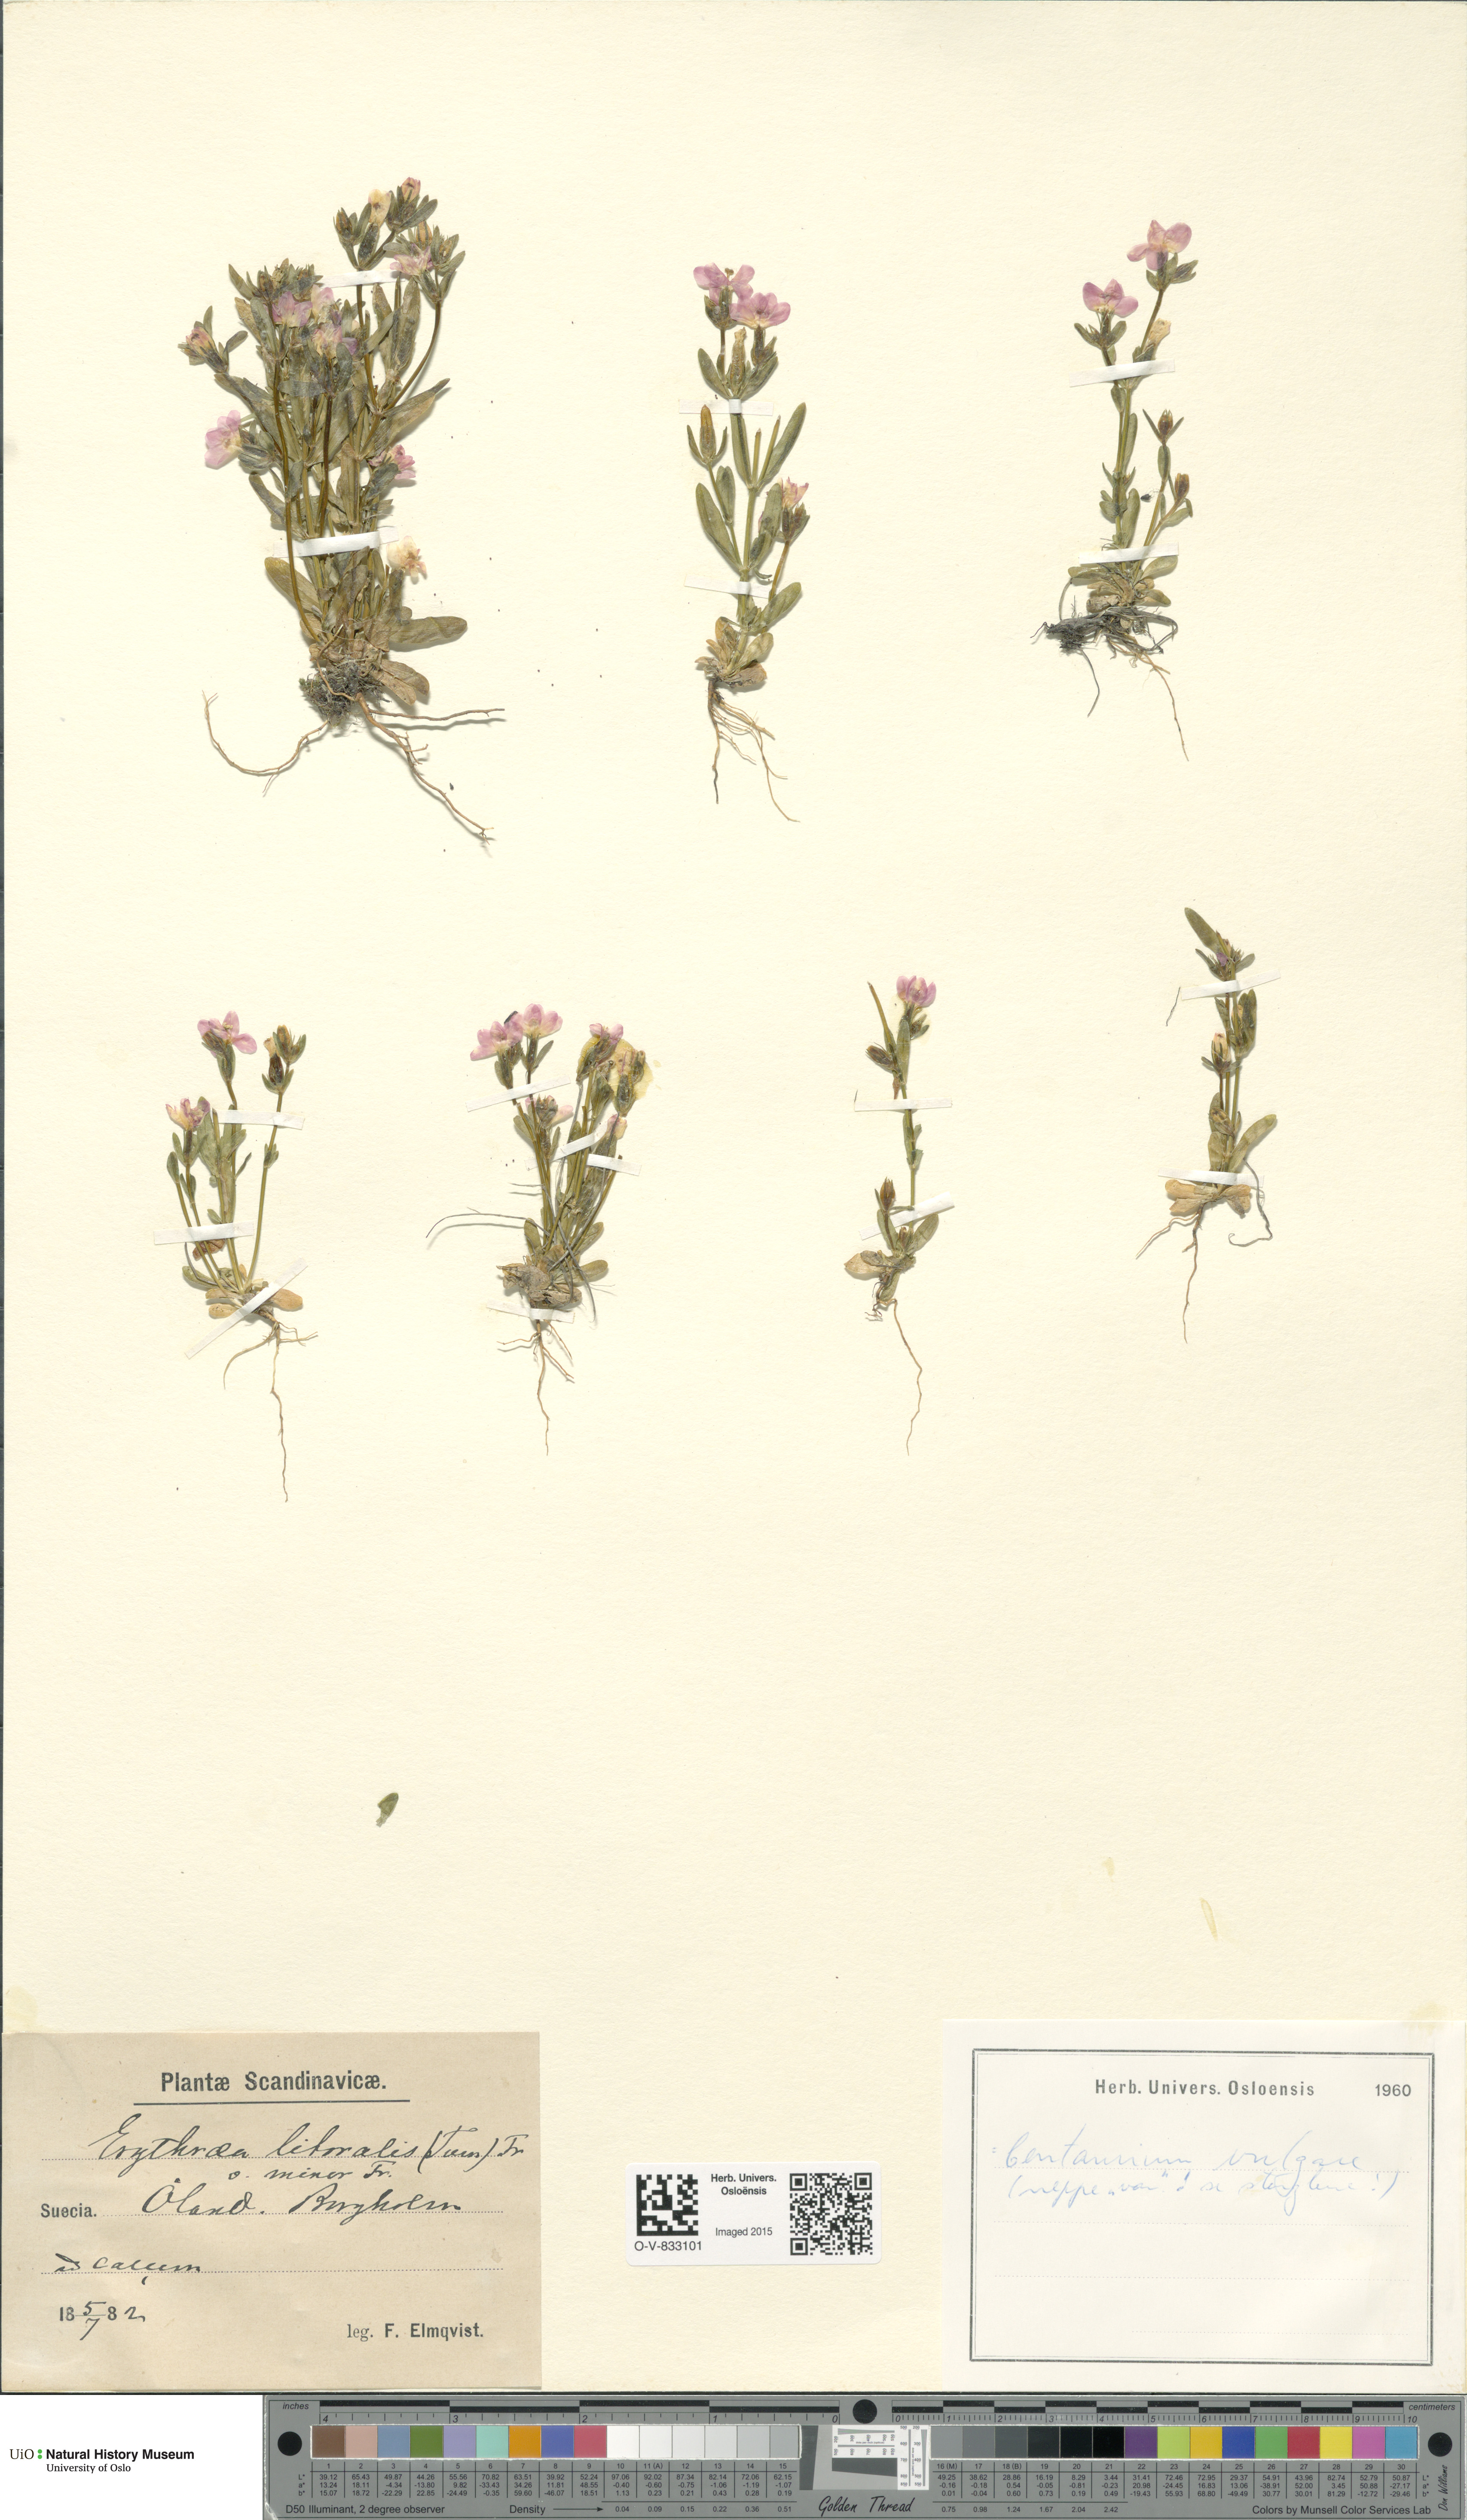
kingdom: Plantae
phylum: Tracheophyta
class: Magnoliopsida
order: Gentianales
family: Gentianaceae
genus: Centaurium
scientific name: Centaurium littorale
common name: Seaside centaury
